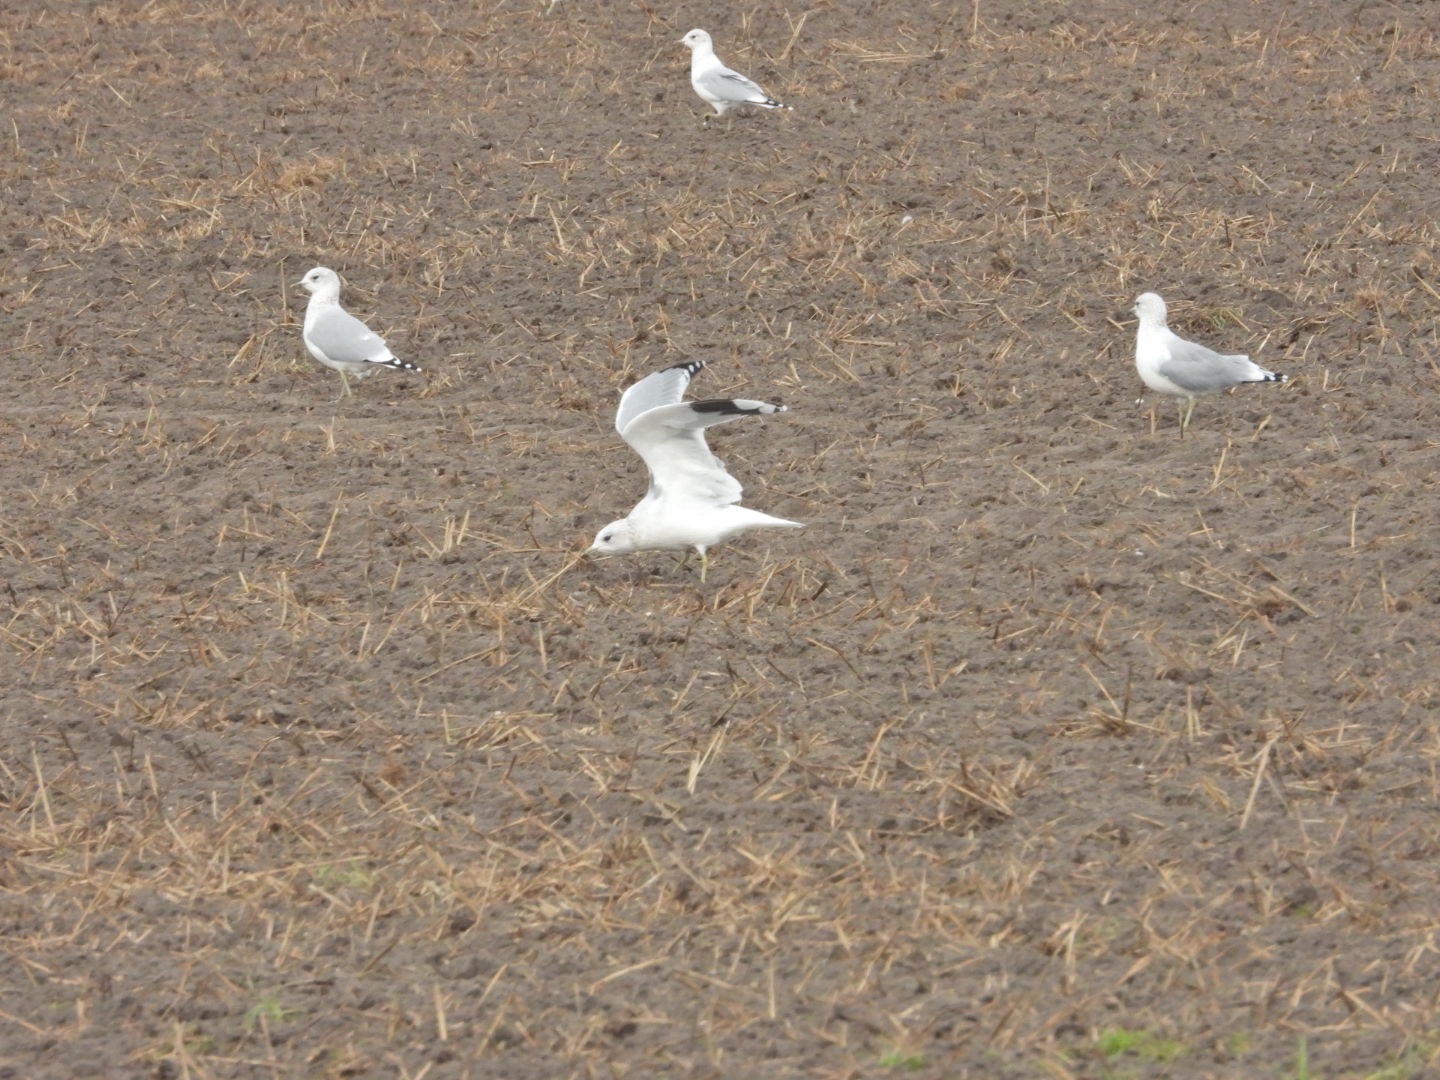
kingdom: Animalia
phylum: Chordata
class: Aves
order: Charadriiformes
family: Laridae
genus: Larus
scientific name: Larus canus
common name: Stormmåge
